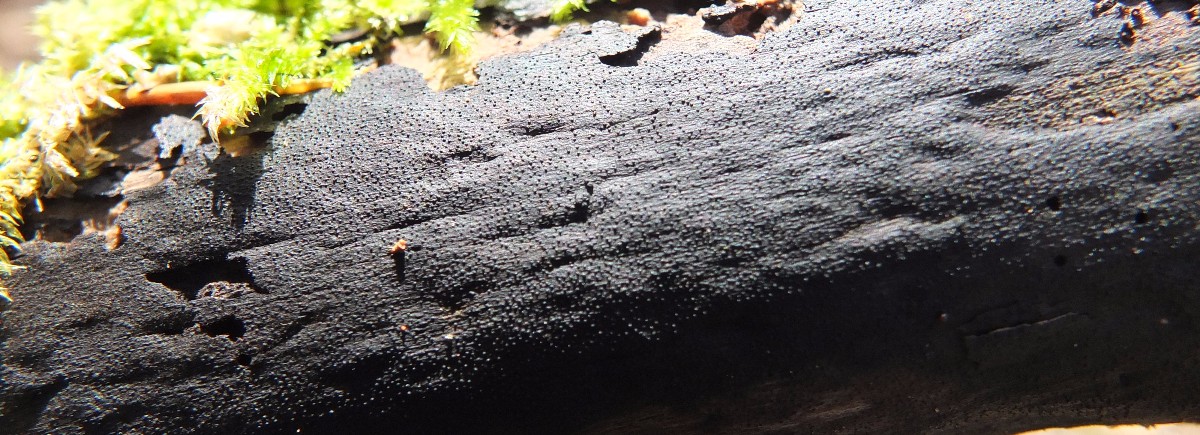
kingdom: Fungi
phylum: Ascomycota
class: Sordariomycetes
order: Xylariales
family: Diatrypaceae
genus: Eutypa
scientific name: Eutypa maura
